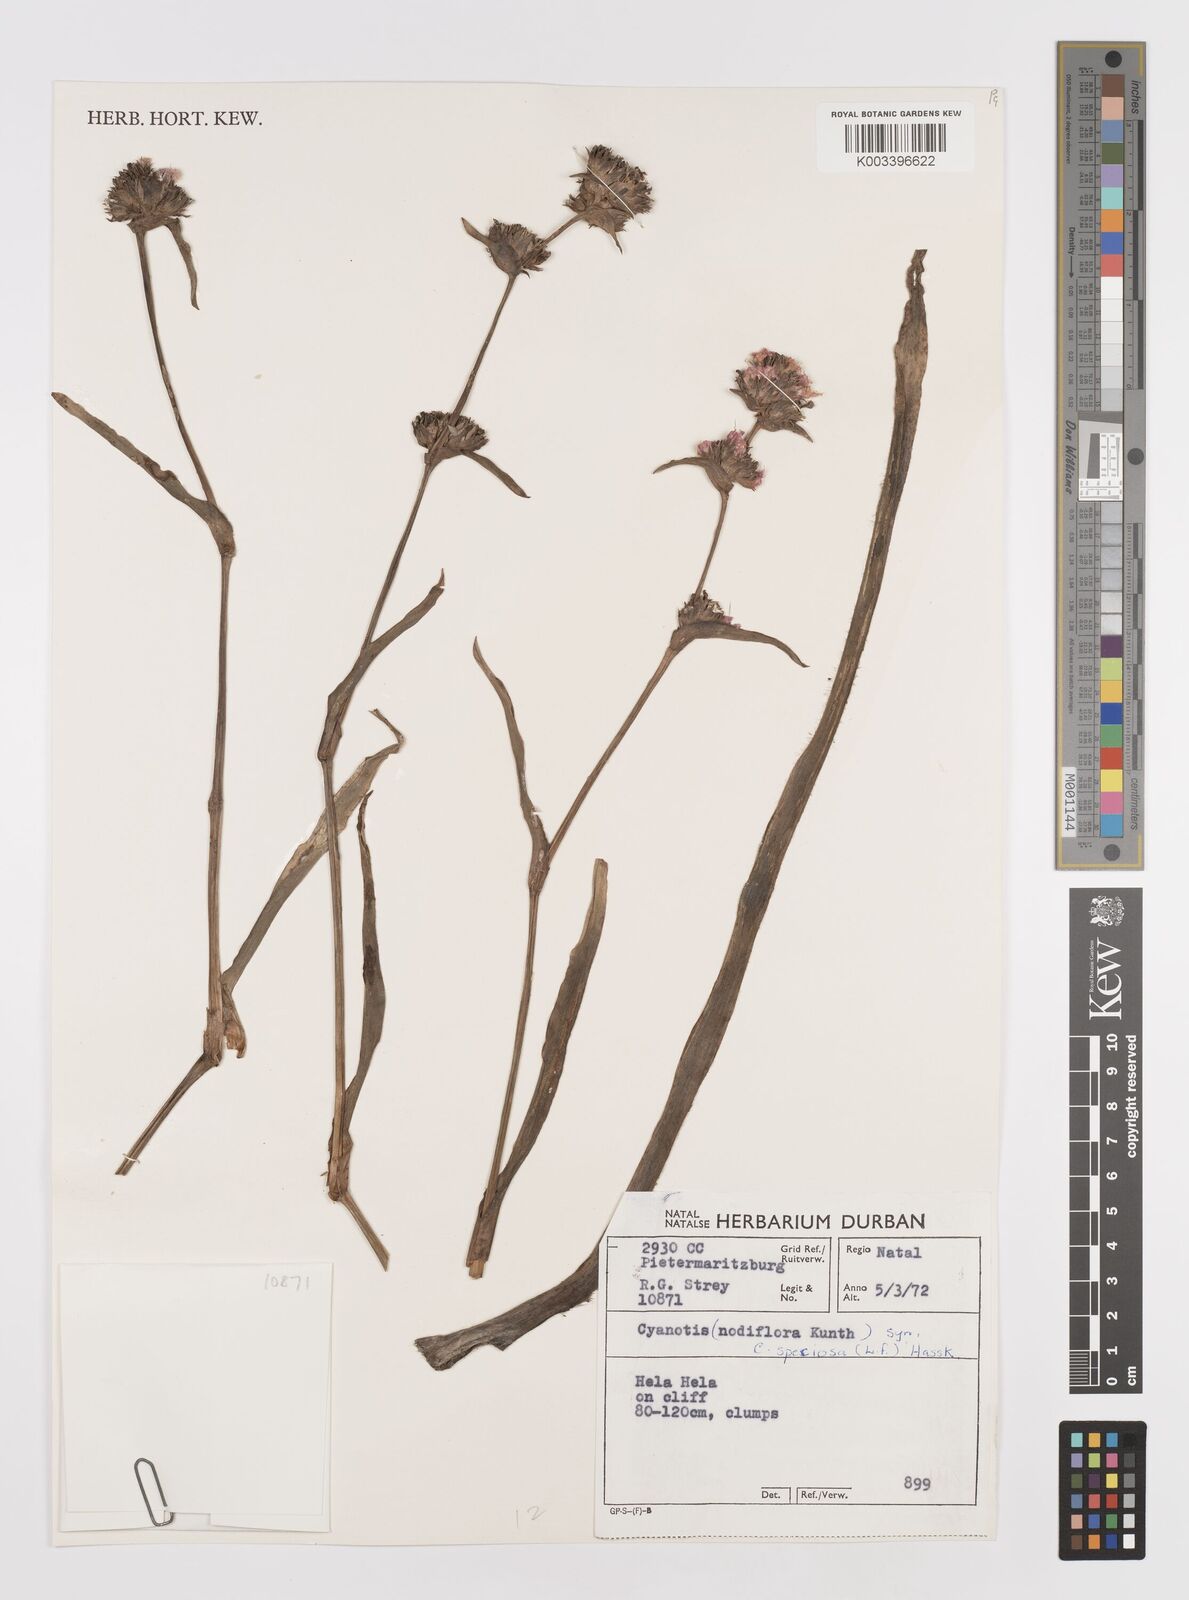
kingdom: Plantae
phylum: Tracheophyta
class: Liliopsida
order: Commelinales
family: Commelinaceae
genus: Cyanotis
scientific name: Cyanotis speciosa
